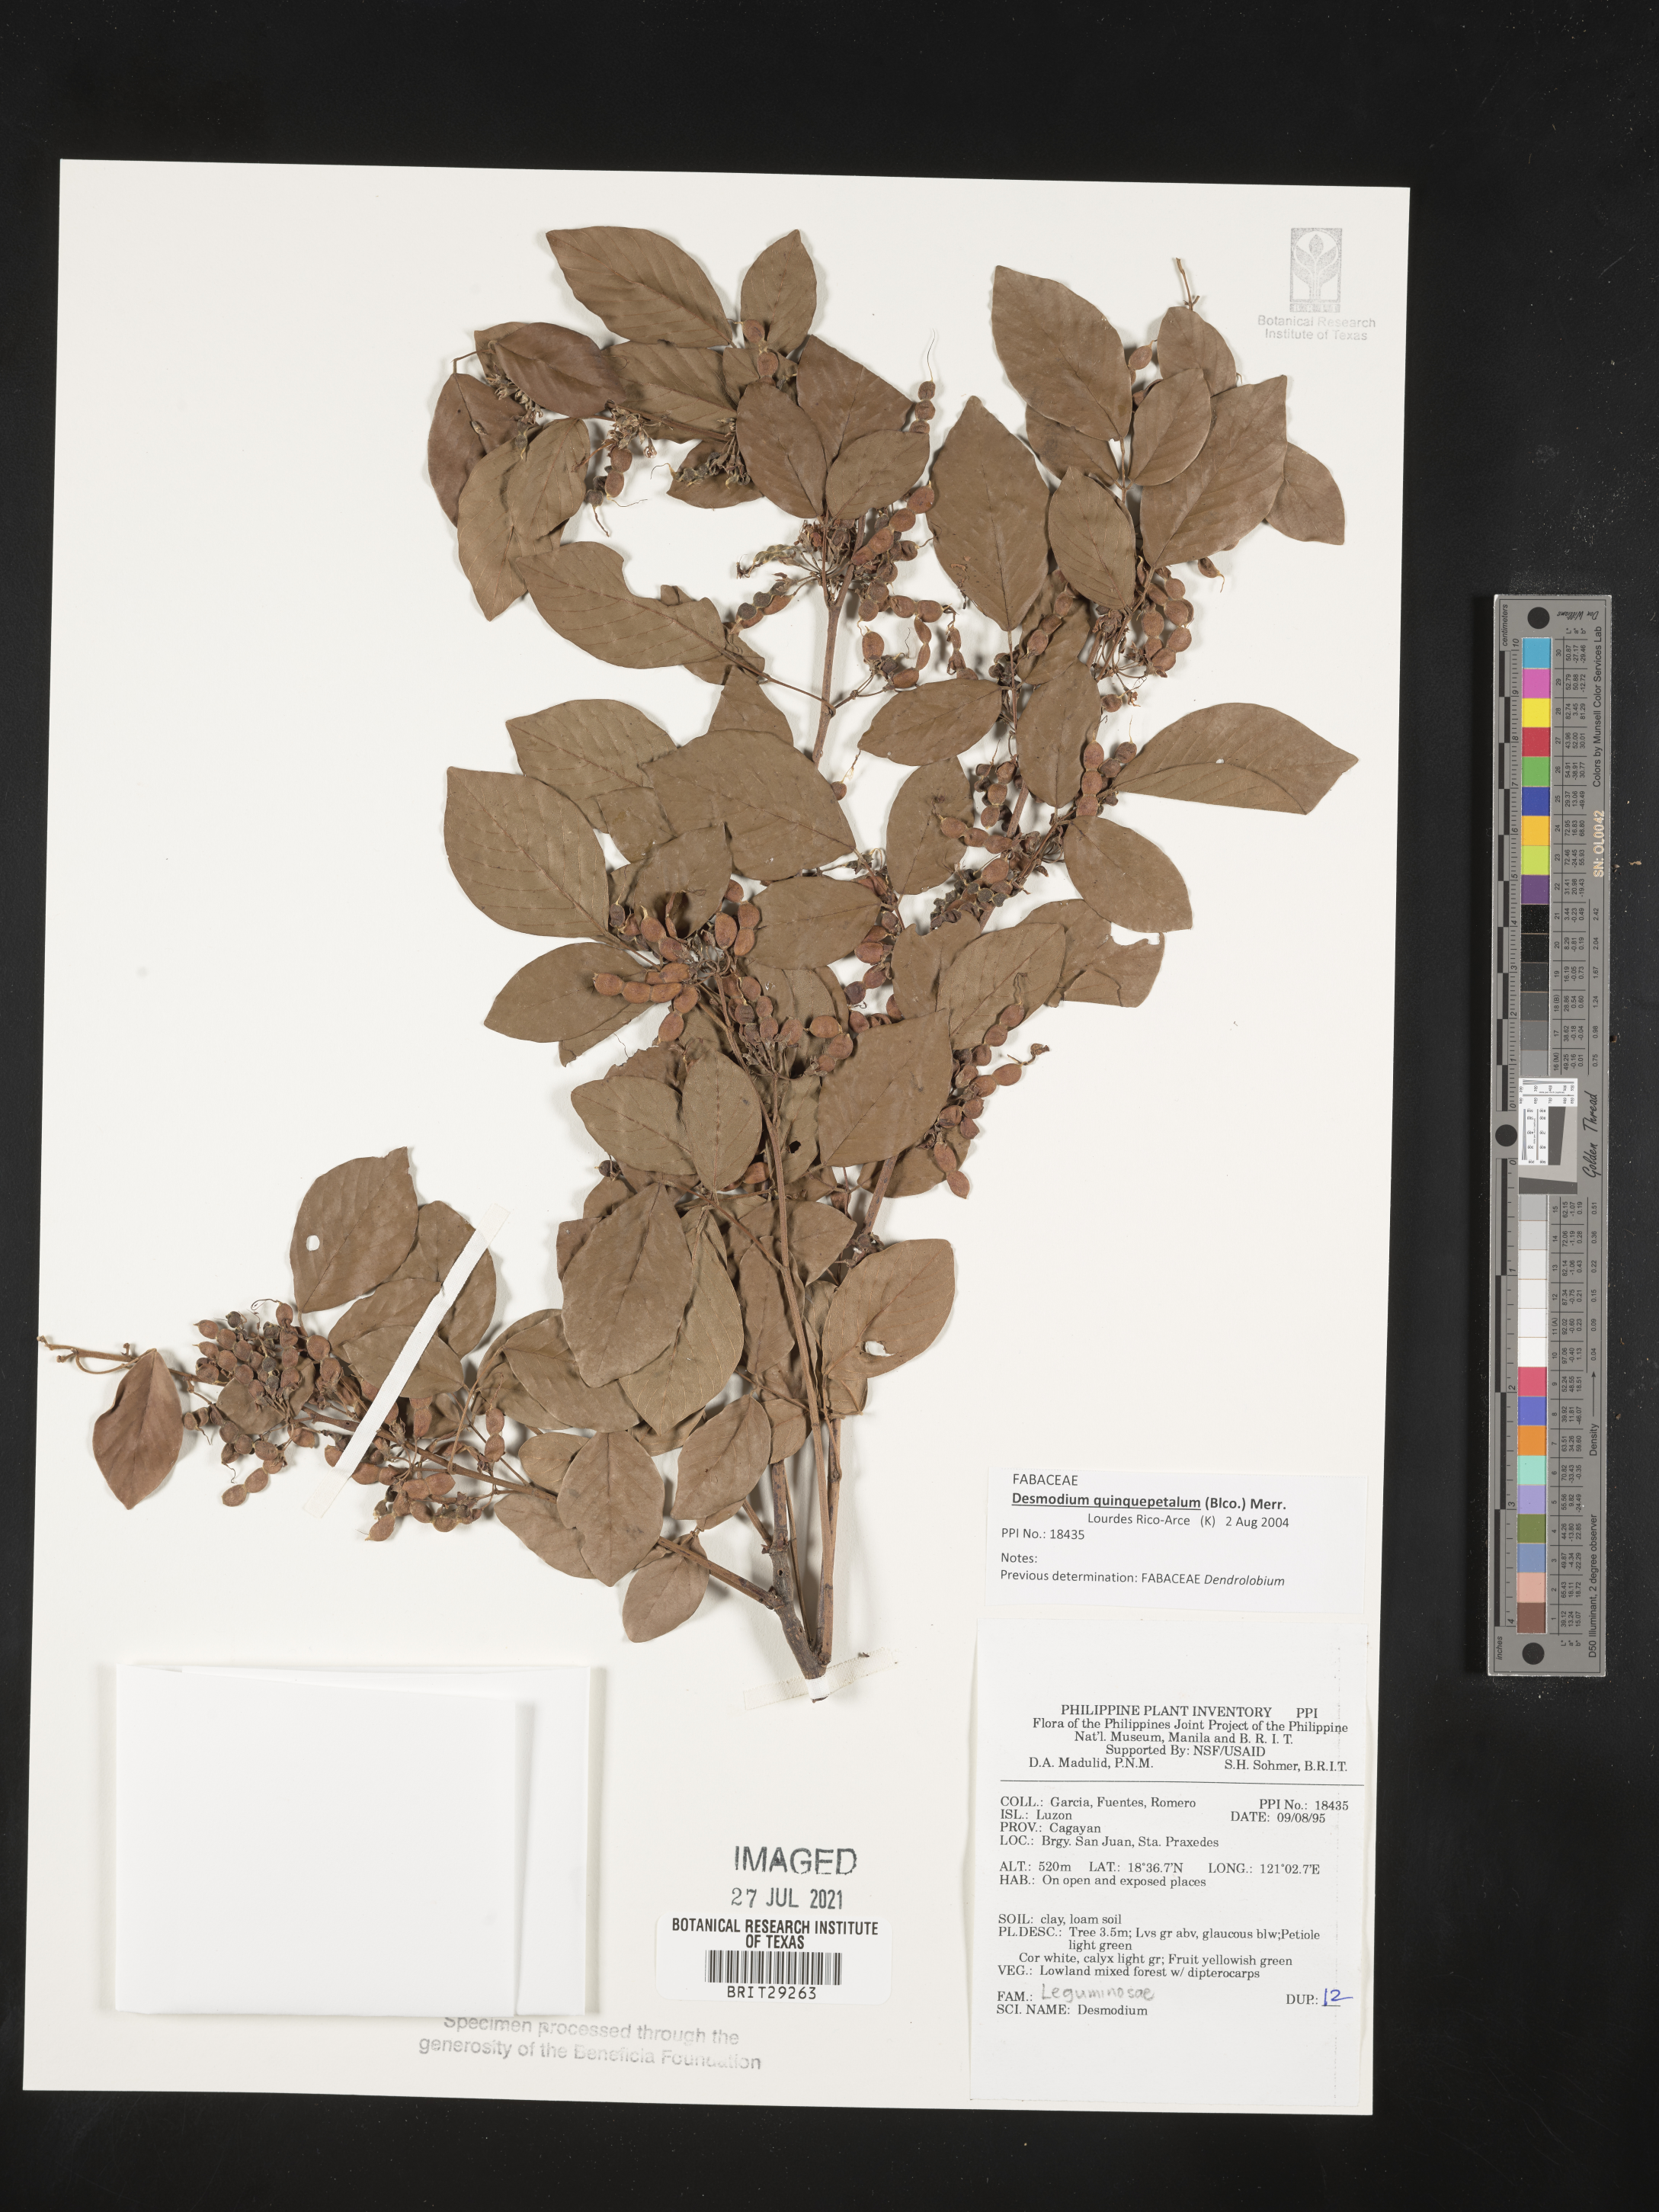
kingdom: Plantae
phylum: Tracheophyta
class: Magnoliopsida
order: Fabales
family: Fabaceae
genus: Dendrolobium
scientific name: Dendrolobium quinquepetalum
